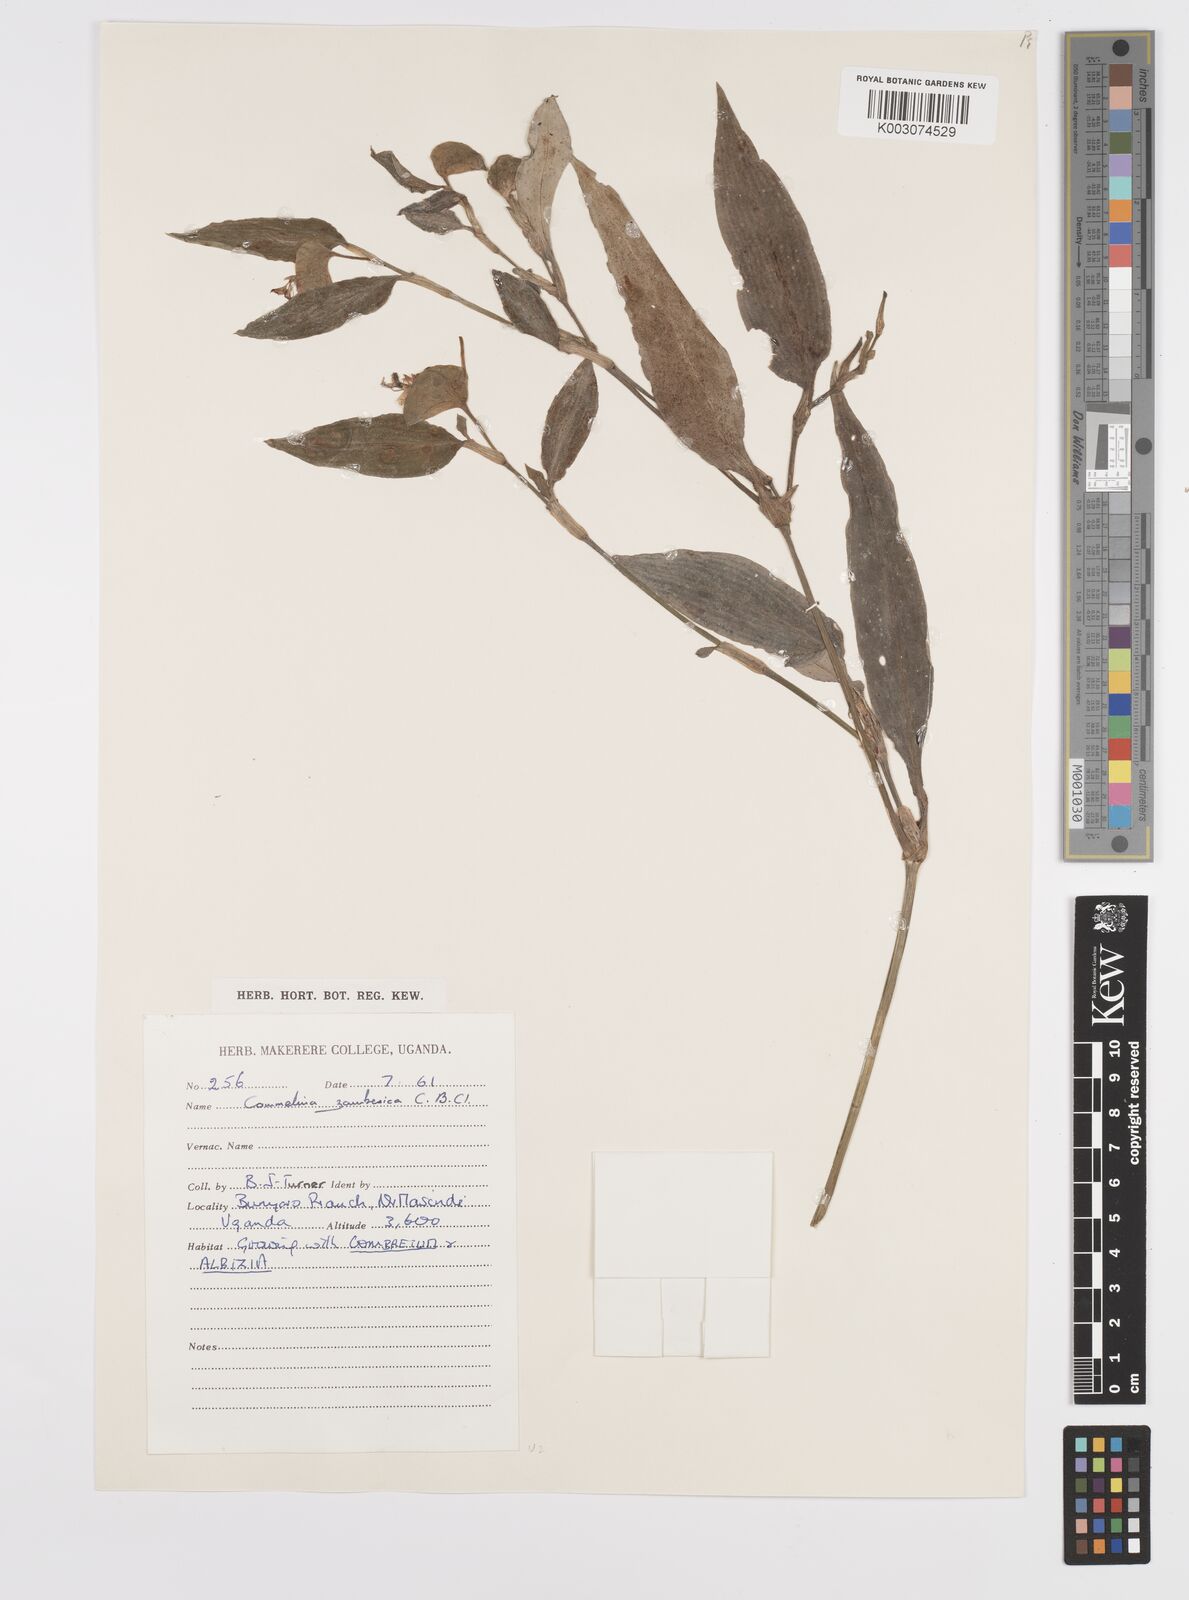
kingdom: Plantae
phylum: Tracheophyta
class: Liliopsida
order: Commelinales
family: Commelinaceae
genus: Commelina
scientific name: Commelina zambesica
